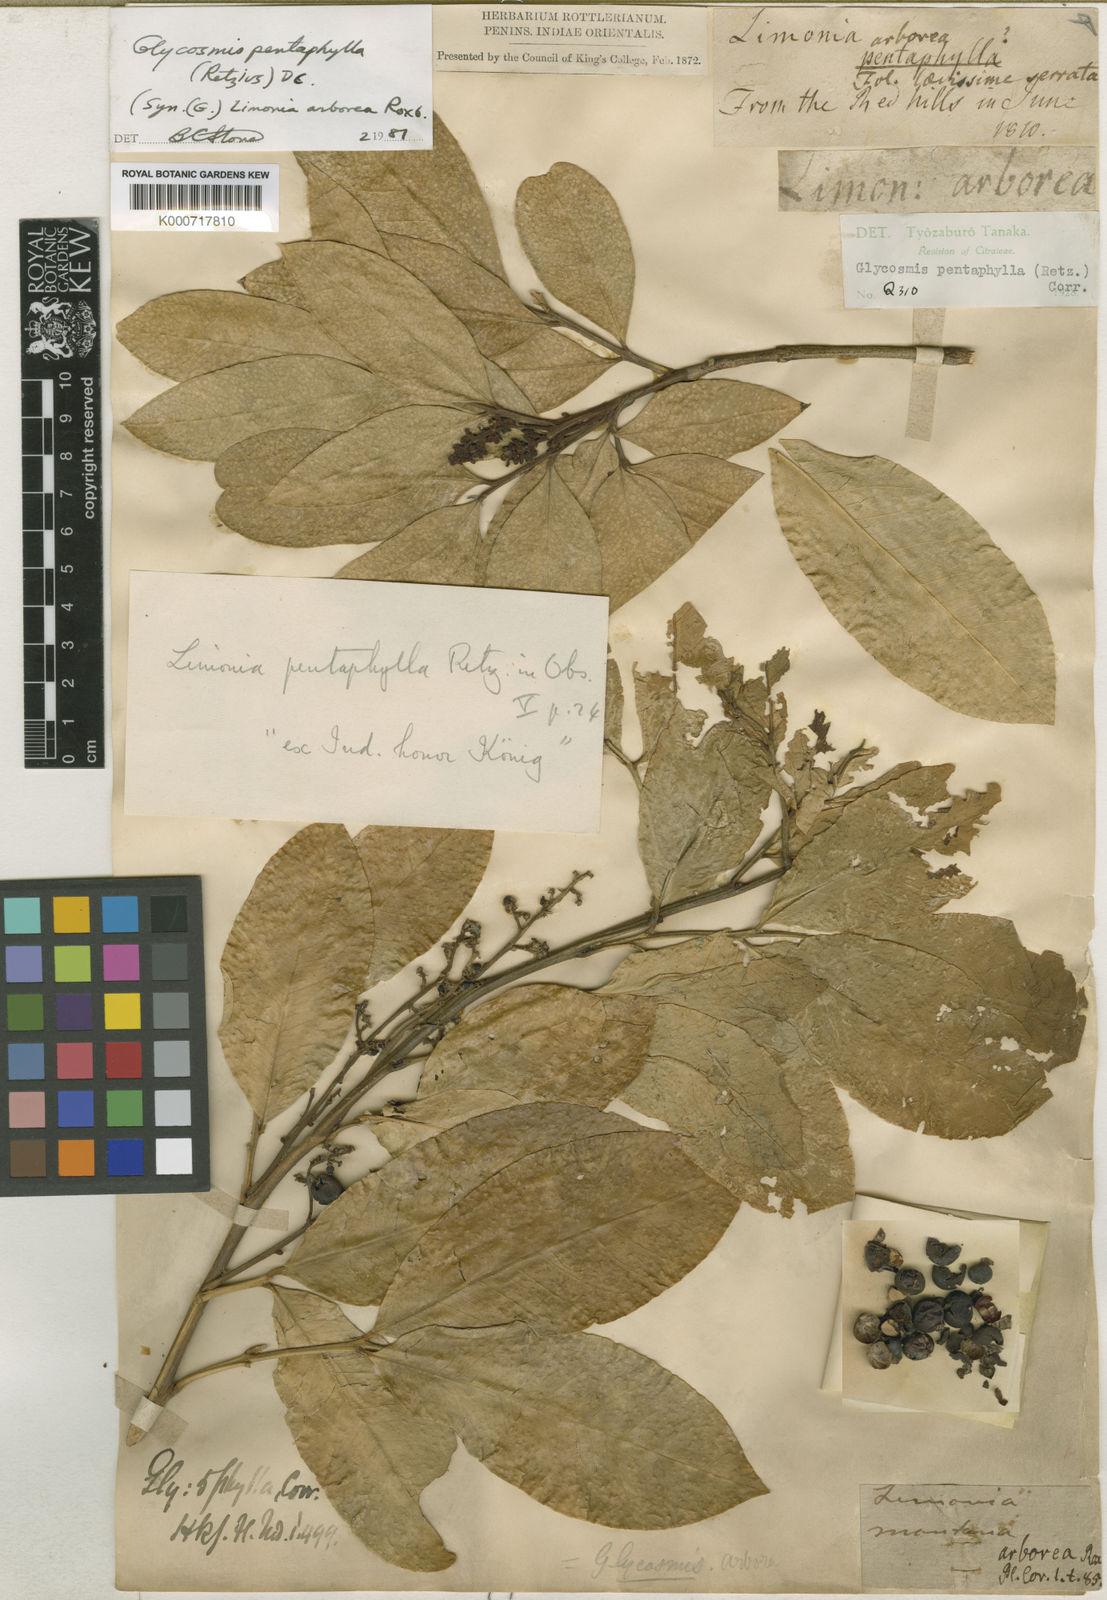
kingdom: Plantae
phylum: Tracheophyta
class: Magnoliopsida
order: Sapindales
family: Rutaceae
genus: Glycosmis
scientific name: Glycosmis pentaphylla
